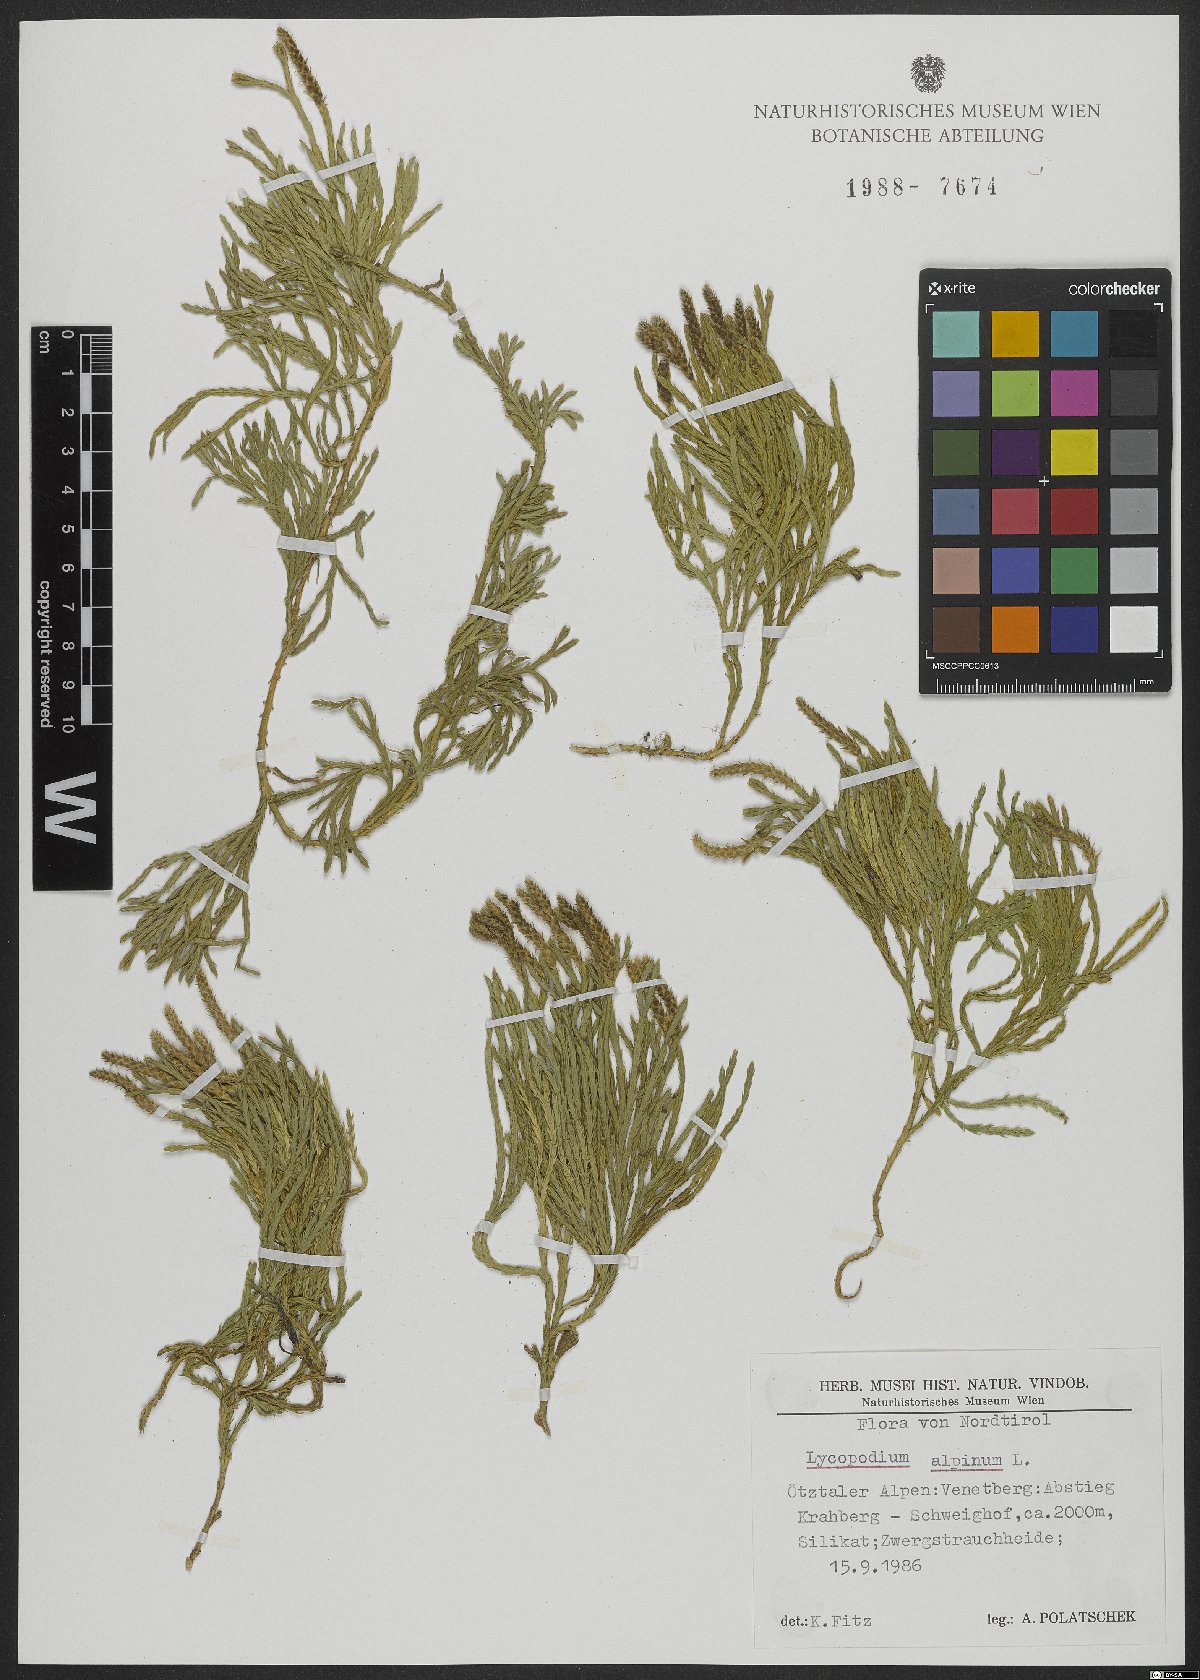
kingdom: Plantae
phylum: Tracheophyta
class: Lycopodiopsida
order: Lycopodiales
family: Lycopodiaceae
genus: Diphasiastrum
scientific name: Diphasiastrum alpinum
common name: Alpine clubmoss
